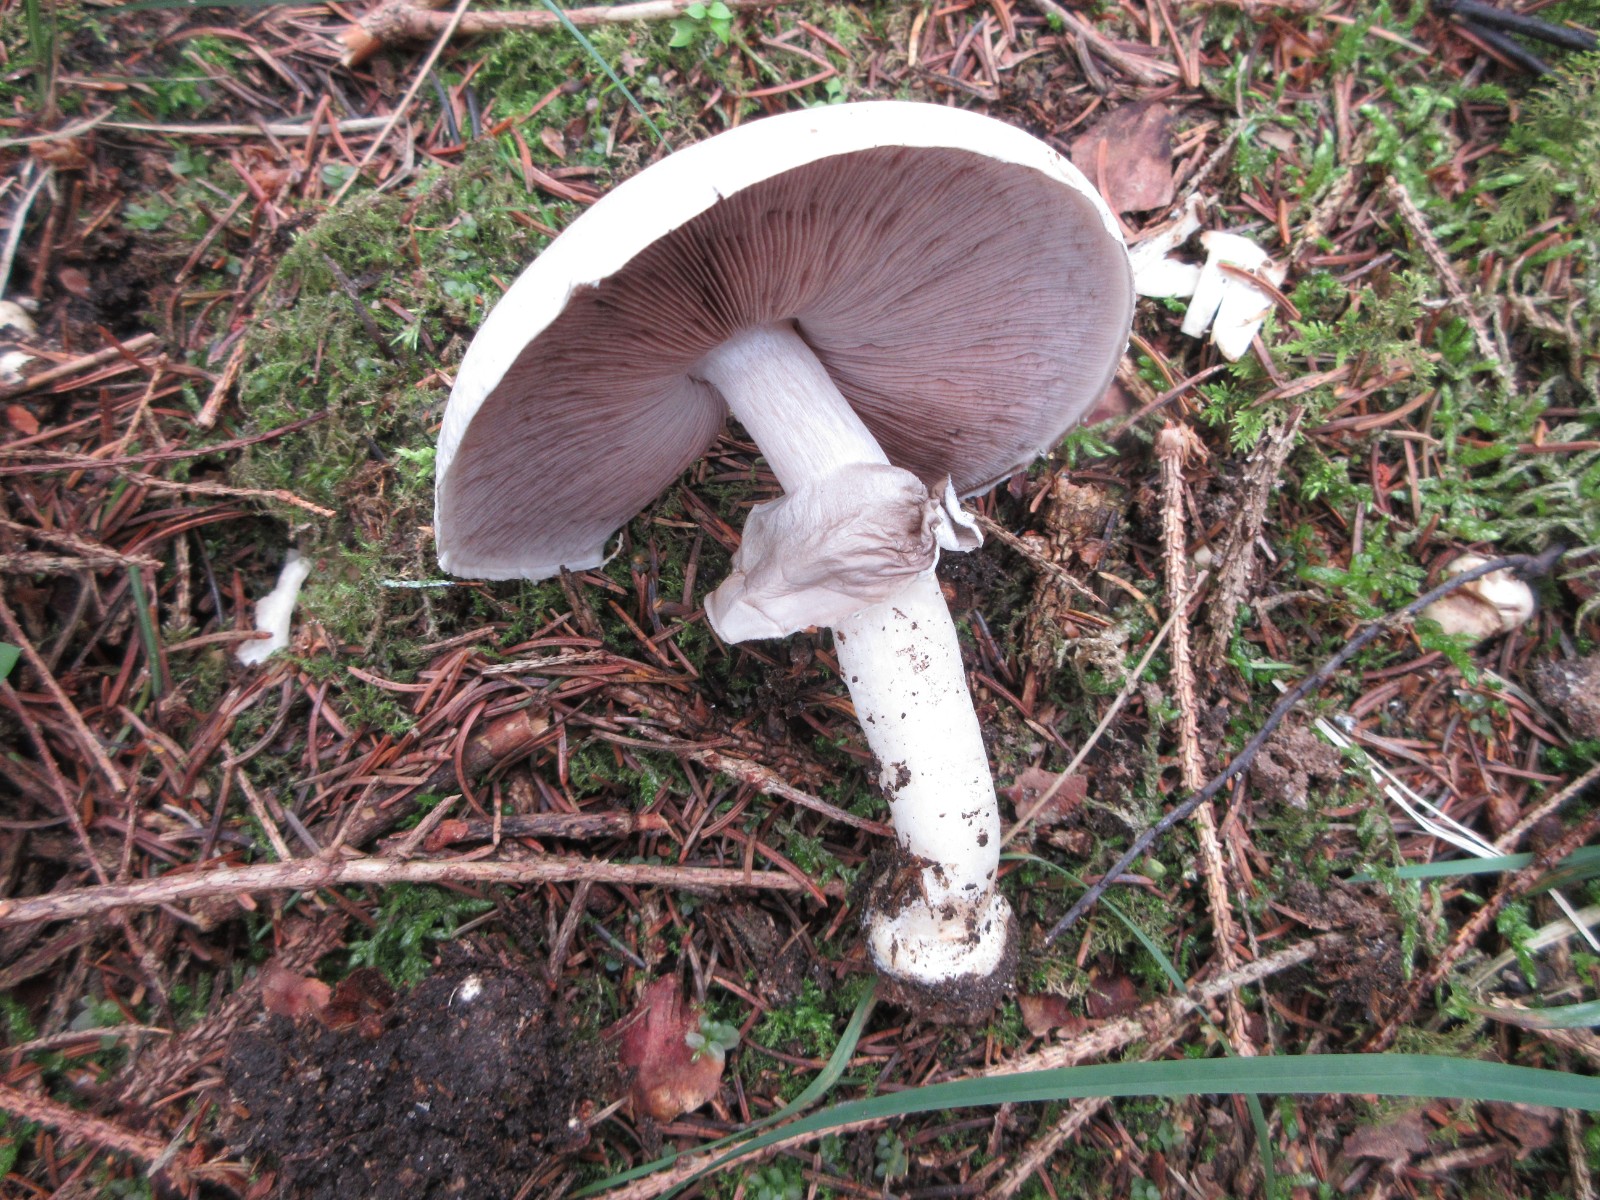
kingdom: Fungi
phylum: Basidiomycota
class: Agaricomycetes
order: Agaricales
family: Agaricaceae
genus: Agaricus
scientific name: Agaricus sylvicola
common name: skiveknoldet champignon
